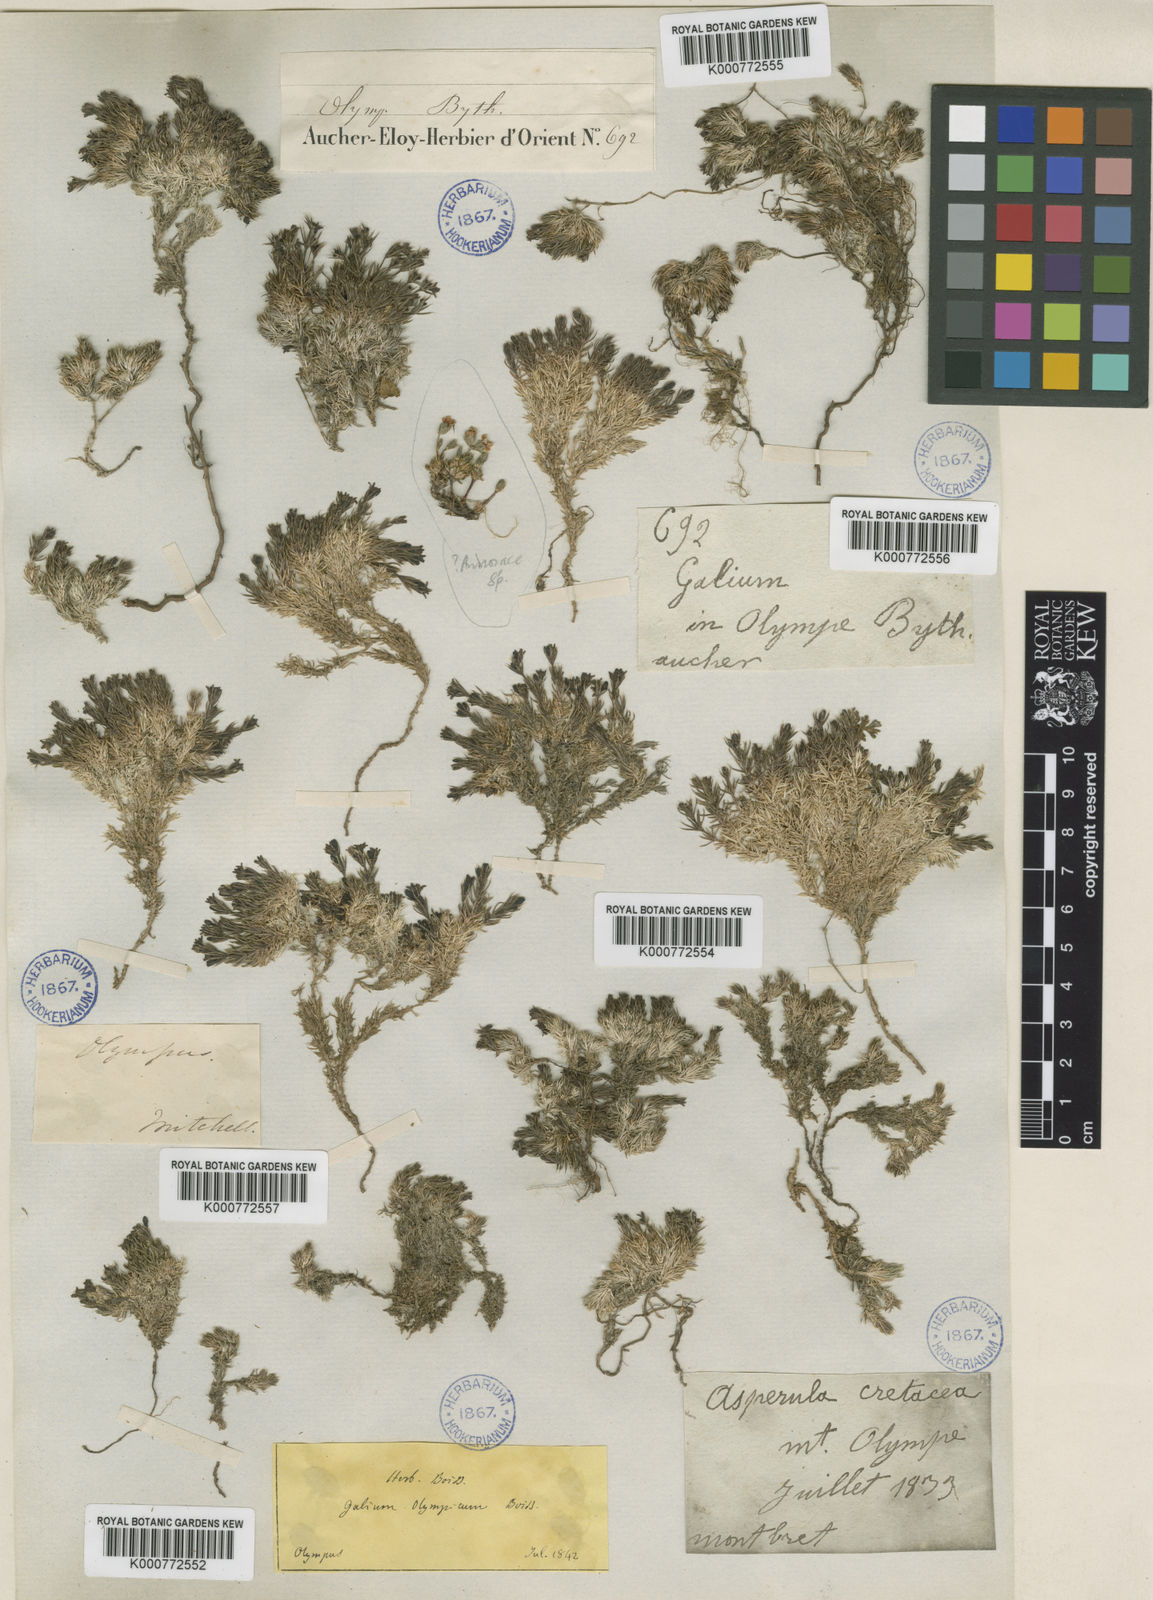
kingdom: Plantae
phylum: Tracheophyta
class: Magnoliopsida
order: Gentianales
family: Rubiaceae
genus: Galium
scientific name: Galium olympicum
